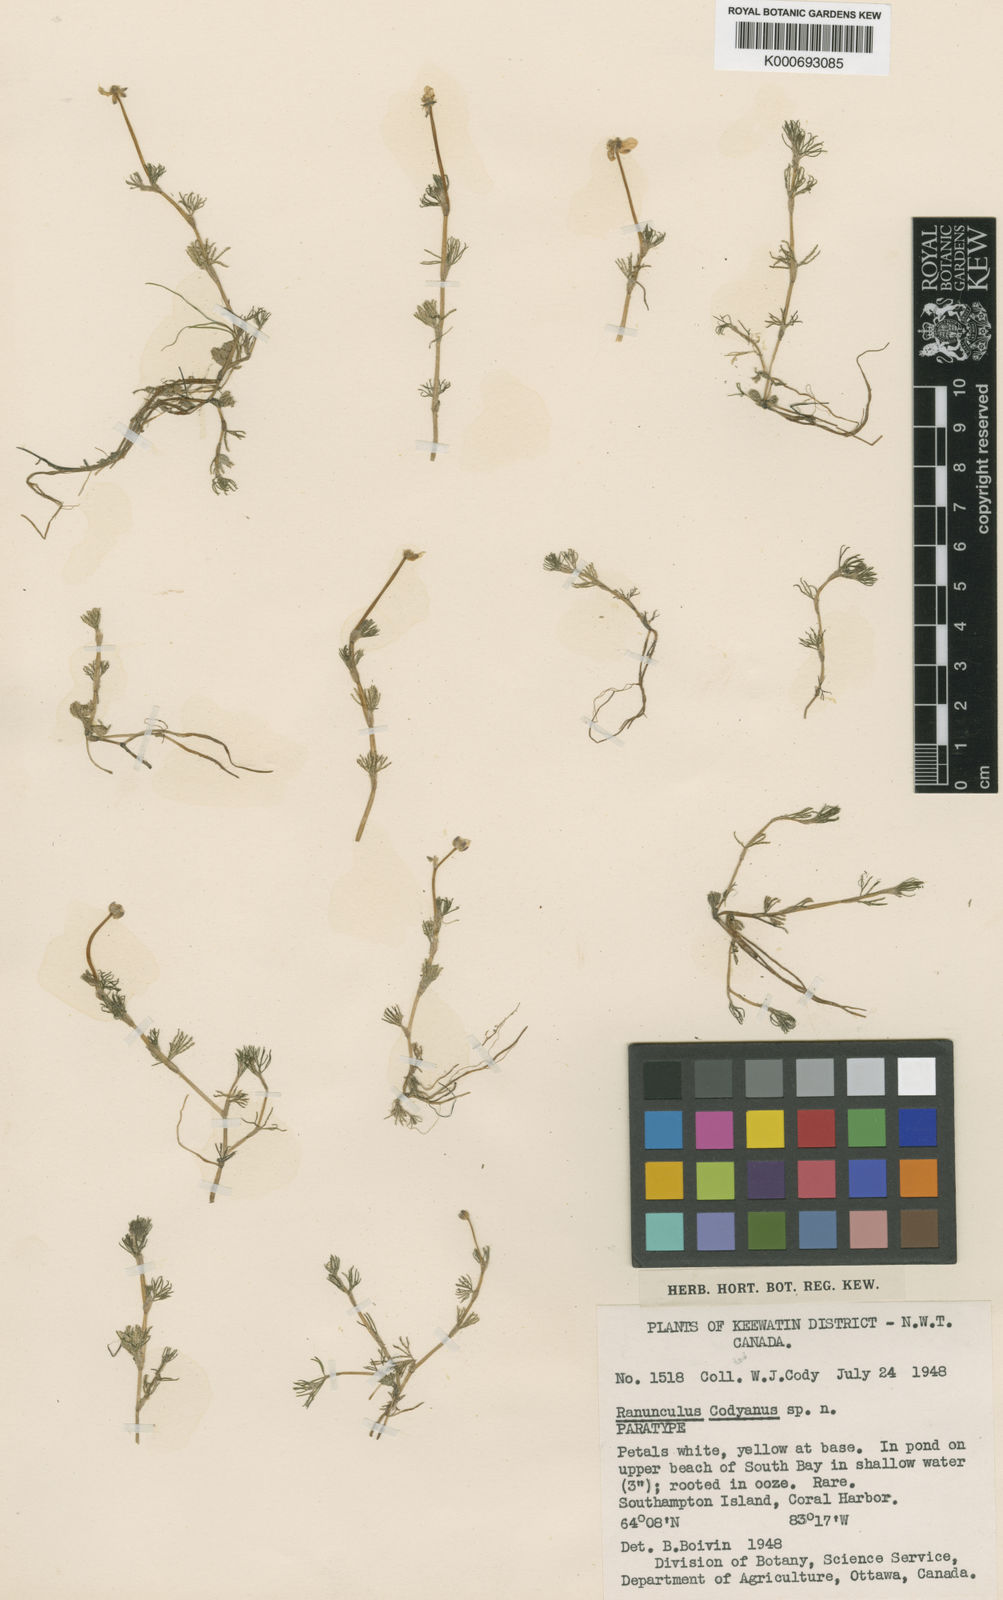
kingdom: Plantae
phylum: Tracheophyta
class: Magnoliopsida
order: Ranunculales
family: Ranunculaceae
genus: Ranunculus
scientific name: Ranunculus confervoides
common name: Delicate buttercup
